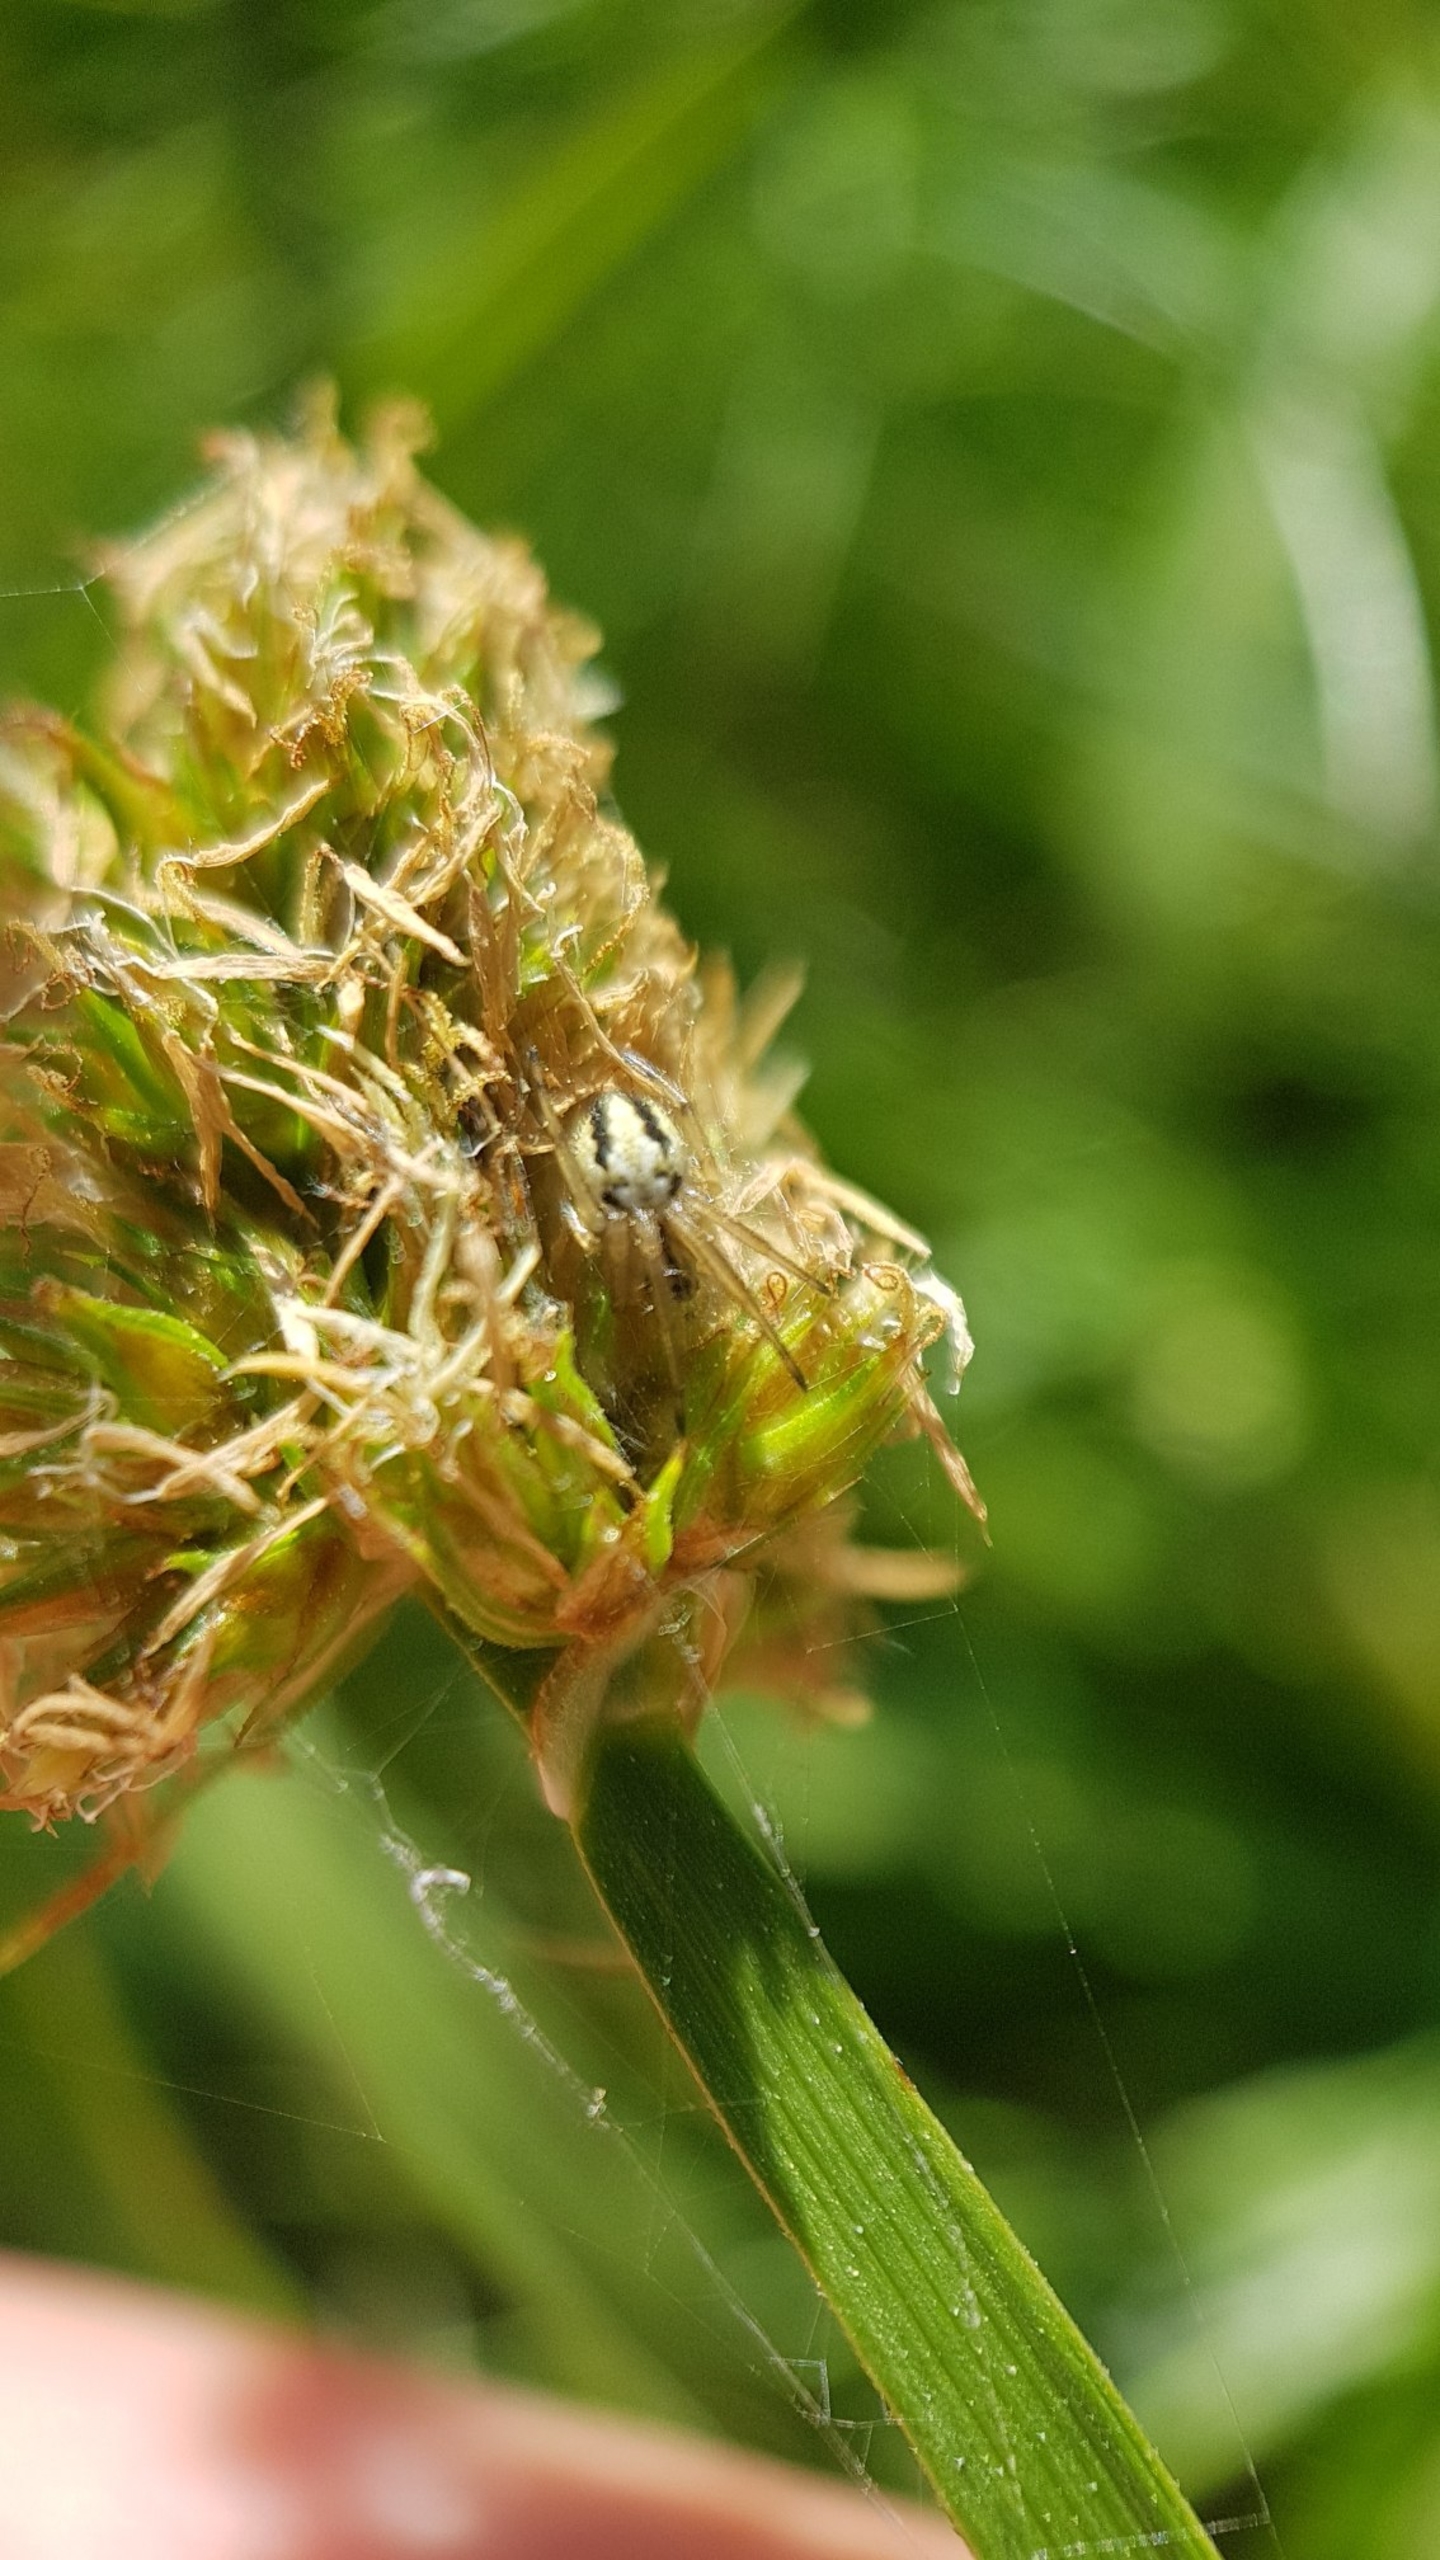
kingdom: Animalia
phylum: Arthropoda
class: Arachnida
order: Araneae
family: Araneidae
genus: Neoscona
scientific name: Neoscona adianta
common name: Klithjulspinder
